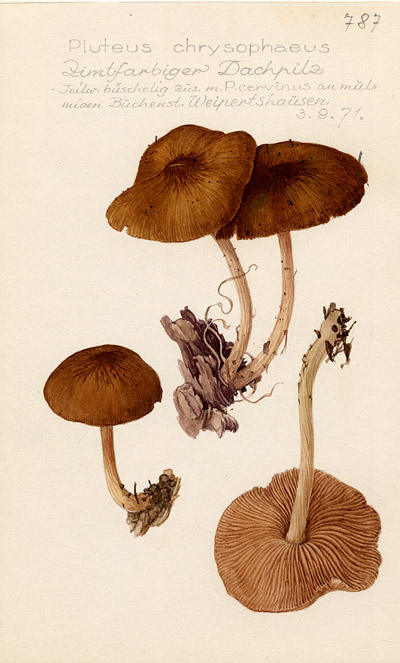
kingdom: Fungi
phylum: Basidiomycota
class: Agaricomycetes
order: Agaricales
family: Pluteaceae
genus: Pluteus
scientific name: Pluteus chrysophaeus
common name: Yellow shield
